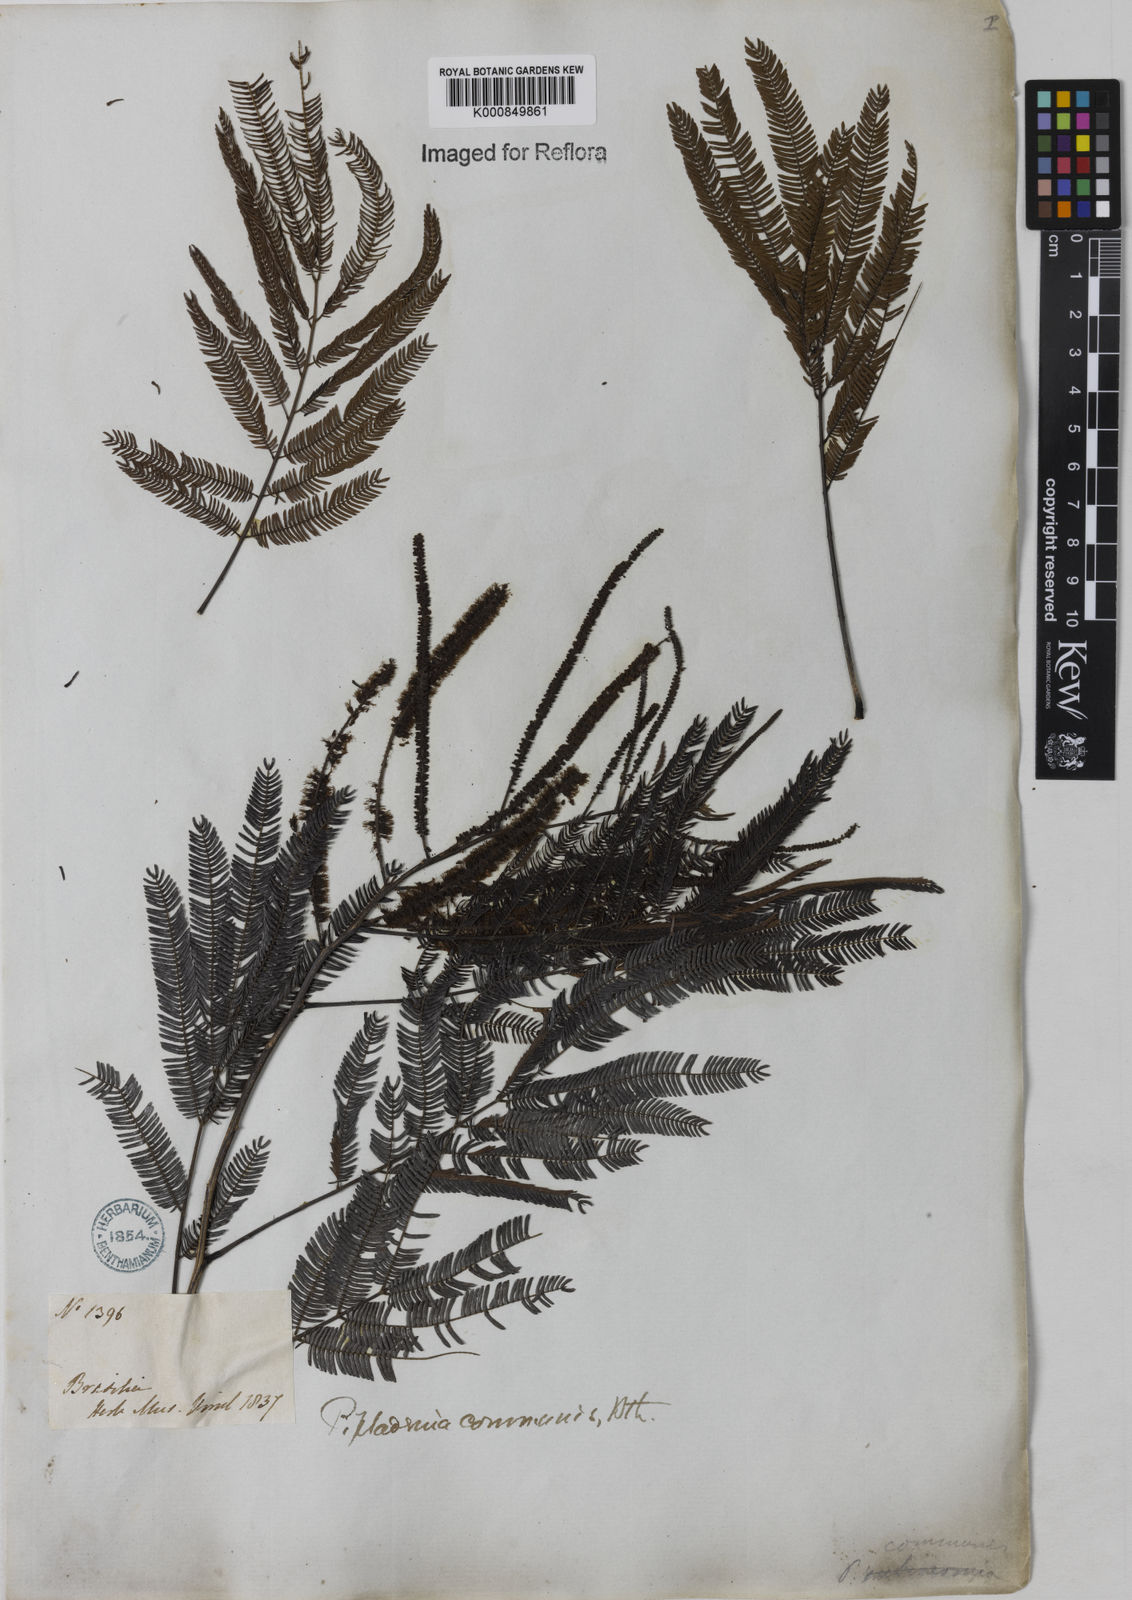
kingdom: Plantae
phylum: Tracheophyta
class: Magnoliopsida
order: Fabales
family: Fabaceae
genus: Piptadenia
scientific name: Piptadenia gonoacantha
